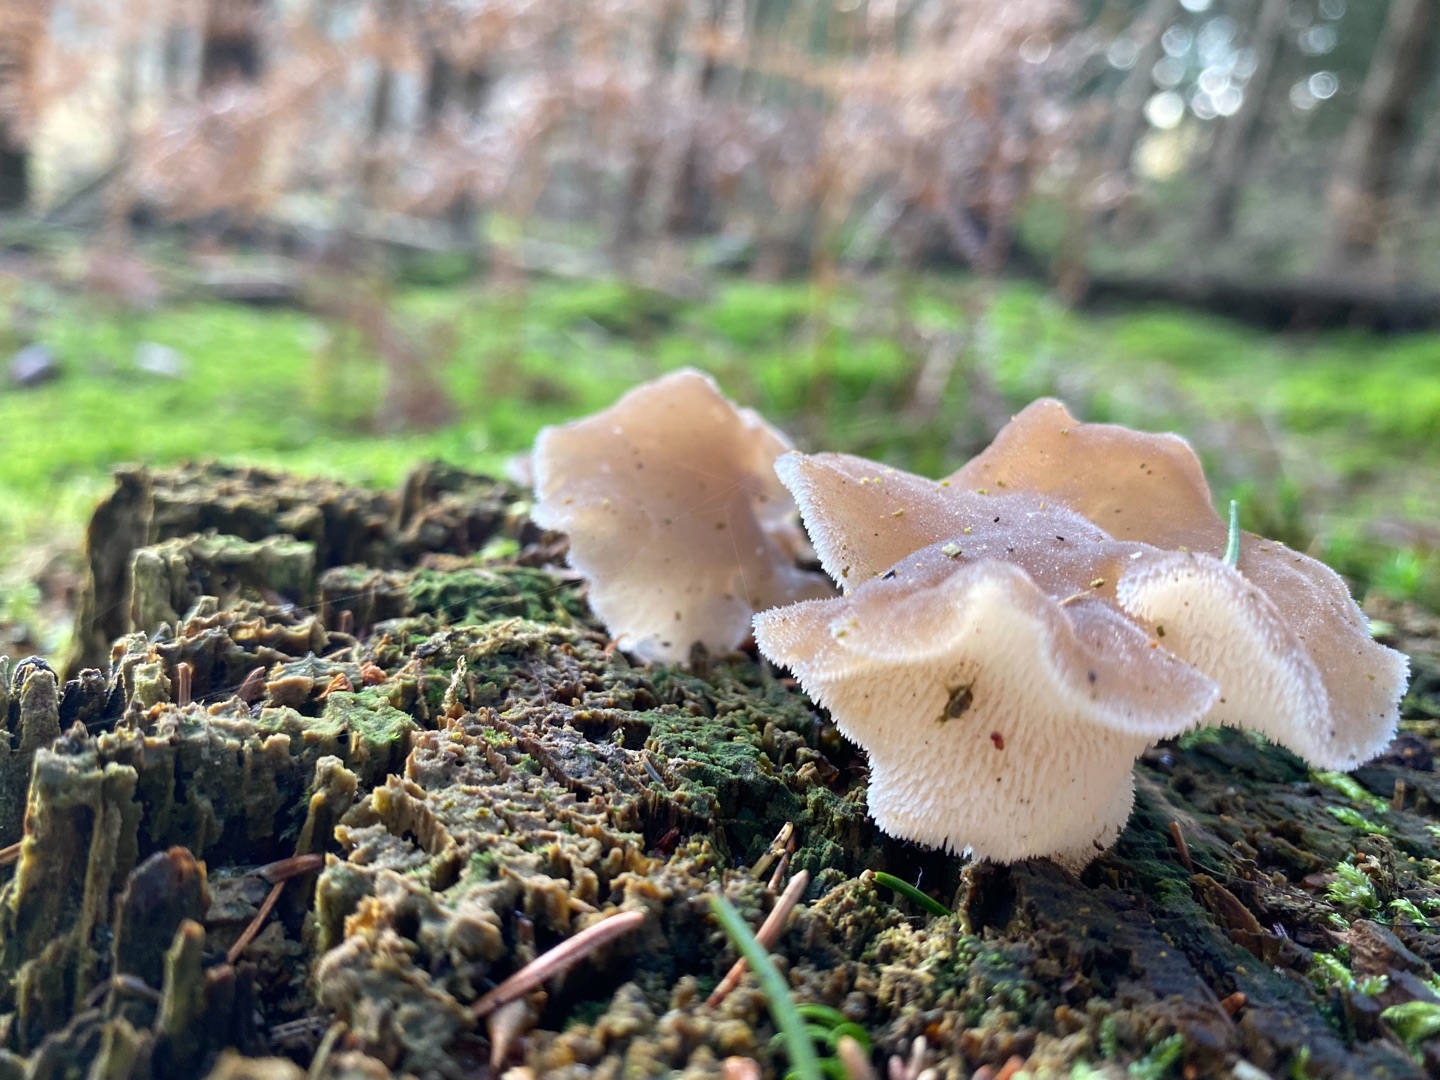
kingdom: Fungi
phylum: Basidiomycota
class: Agaricomycetes
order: Auriculariales
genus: Pseudohydnum
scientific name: Pseudohydnum gelatinosum
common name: Bævretand
